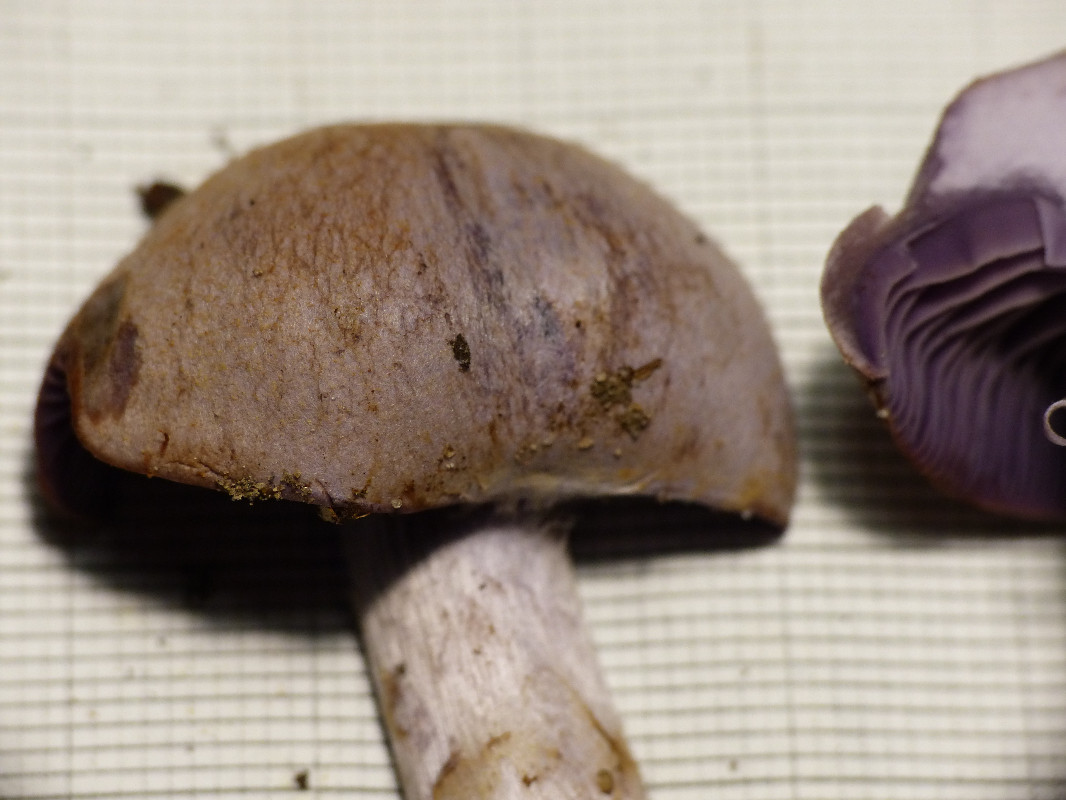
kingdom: Fungi
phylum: Basidiomycota
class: Agaricomycetes
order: Agaricales
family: Cortinariaceae
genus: Cortinarius
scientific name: Cortinarius
